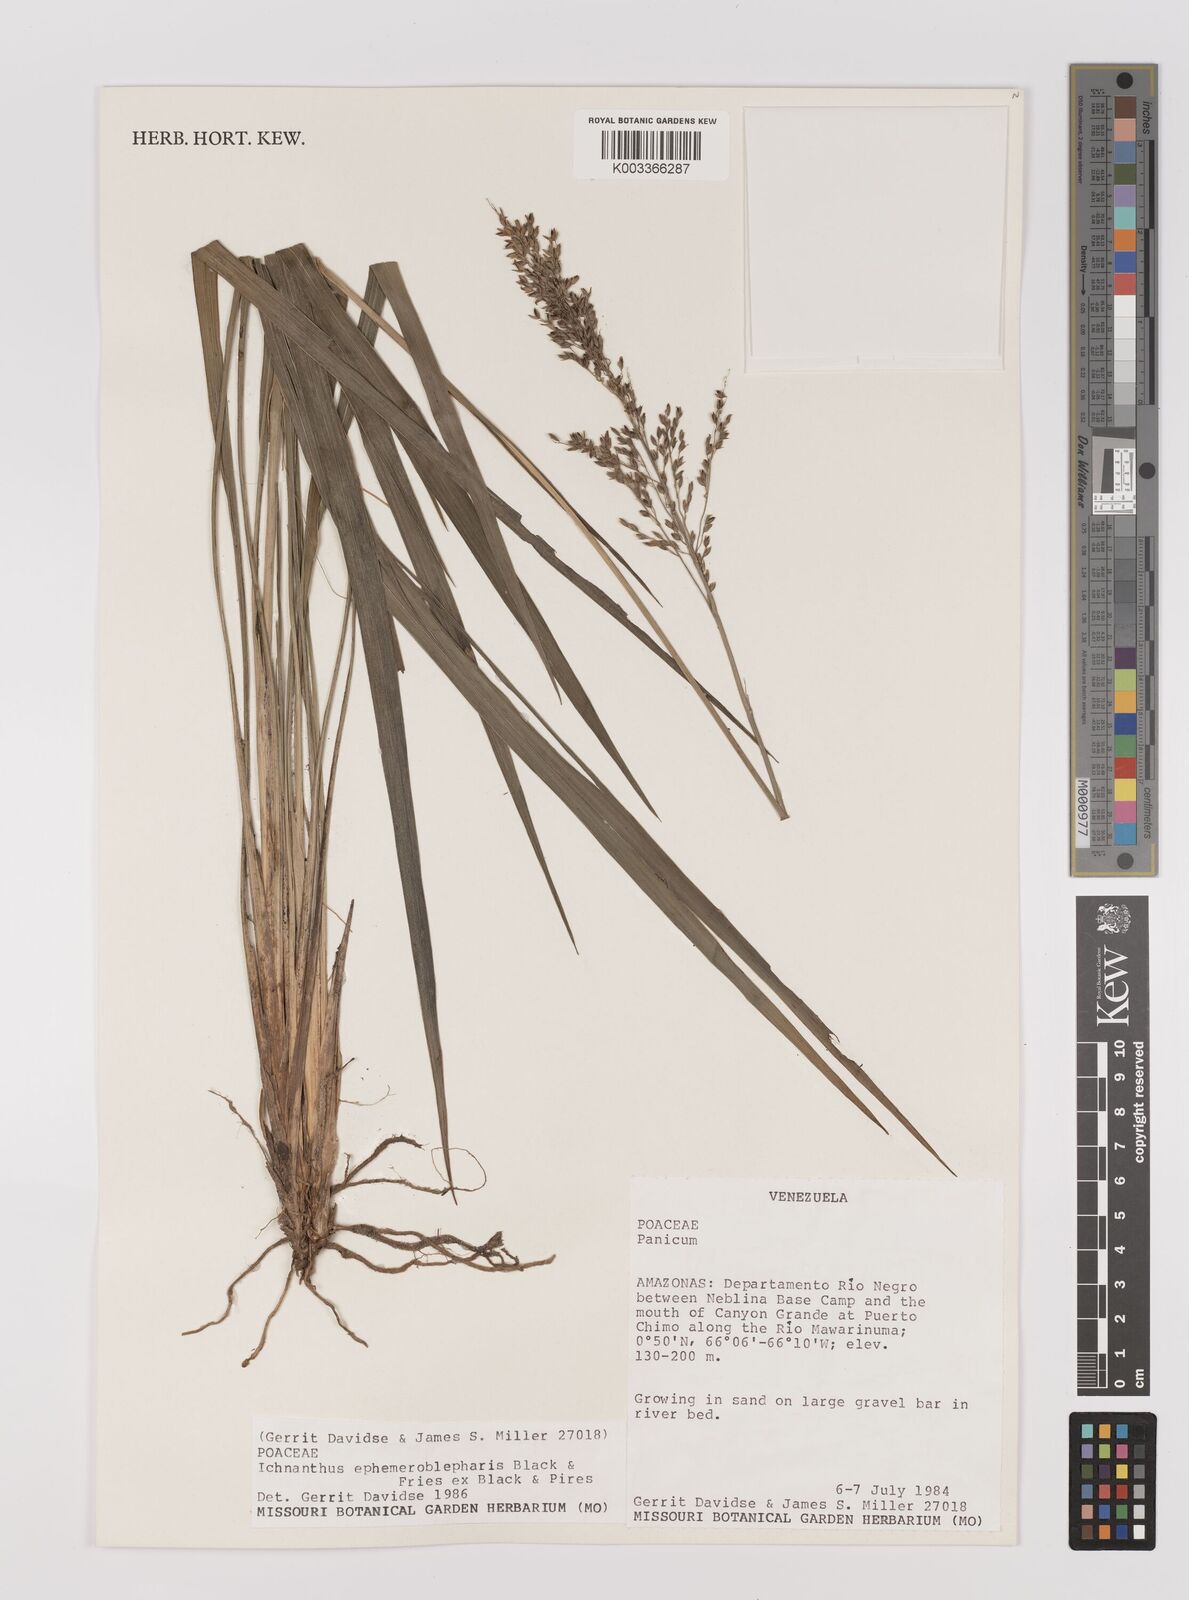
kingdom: Plantae
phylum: Tracheophyta
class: Liliopsida
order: Poales
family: Poaceae
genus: Ichnanthus
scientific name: Ichnanthus ephemeroblepharis
